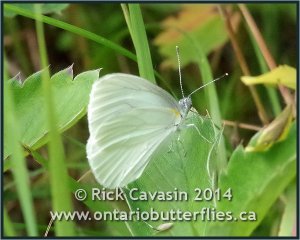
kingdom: Animalia
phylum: Arthropoda
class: Insecta
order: Lepidoptera
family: Pieridae
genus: Pieris
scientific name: Pieris oleracea
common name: Mustard White
